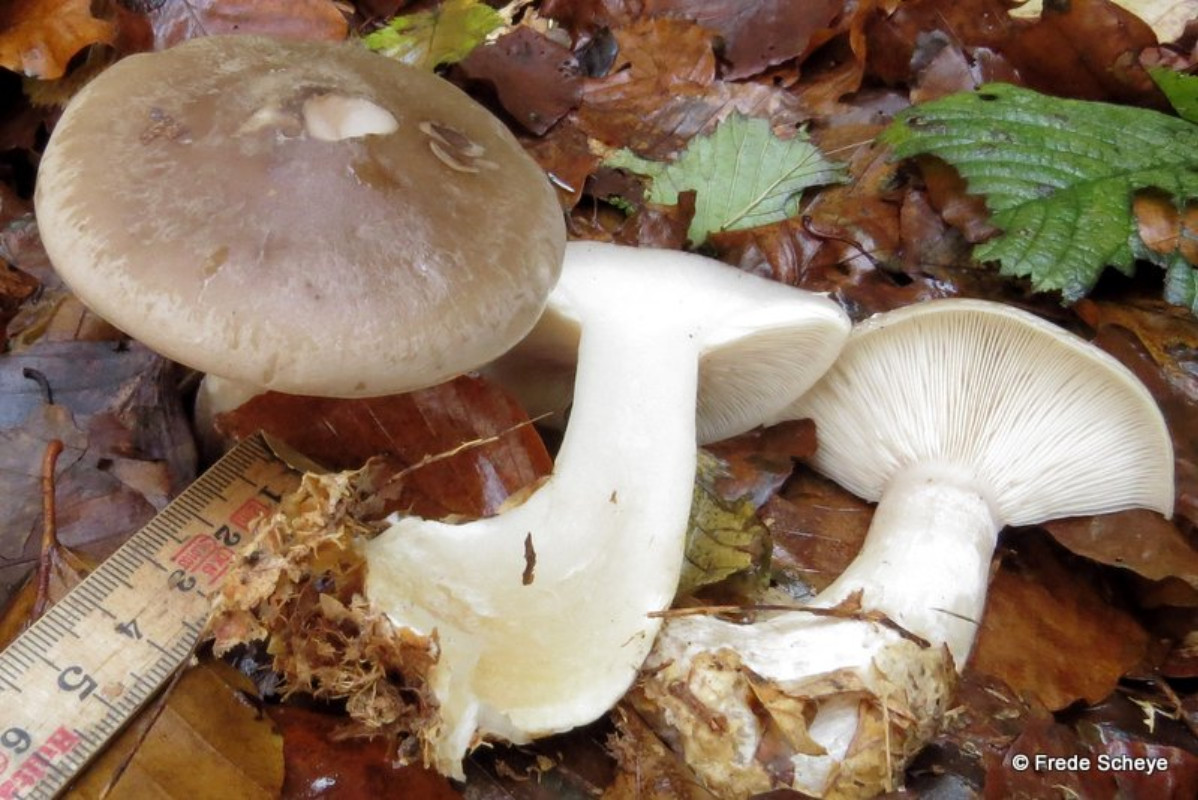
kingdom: Fungi
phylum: Basidiomycota
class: Agaricomycetes
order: Agaricales
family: Tricholomataceae
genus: Clitocybe
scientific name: Clitocybe nebularis
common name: tåge-tragthat
